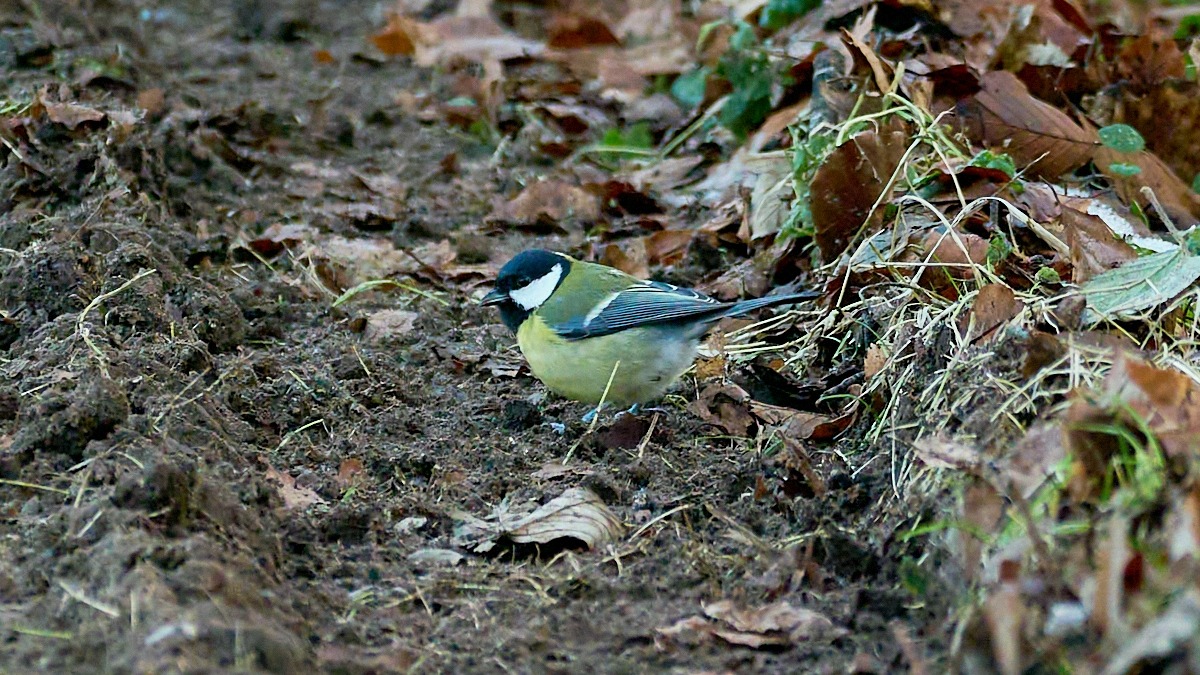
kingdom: Animalia
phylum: Chordata
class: Aves
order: Passeriformes
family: Paridae
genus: Parus
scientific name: Parus major
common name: Musvit
